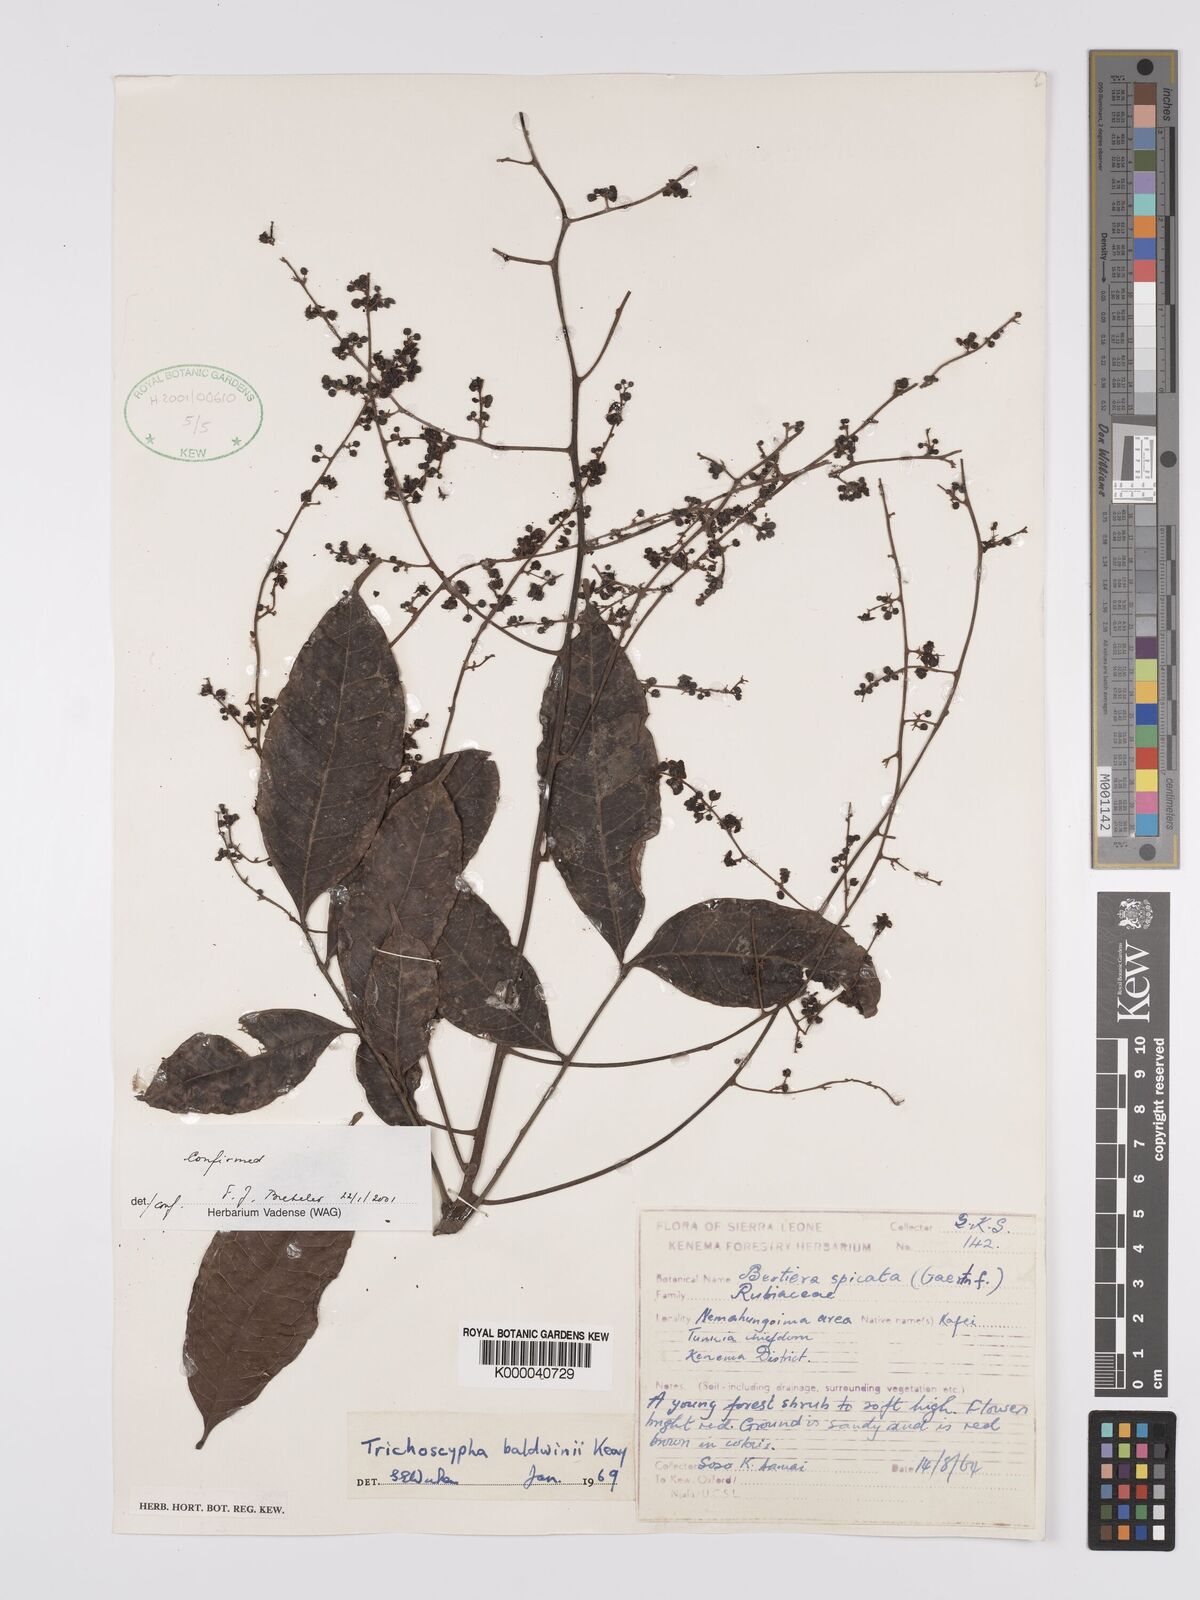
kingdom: Plantae
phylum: Tracheophyta
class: Magnoliopsida
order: Sapindales
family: Anacardiaceae
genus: Trichoscypha
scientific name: Trichoscypha baldwinii
